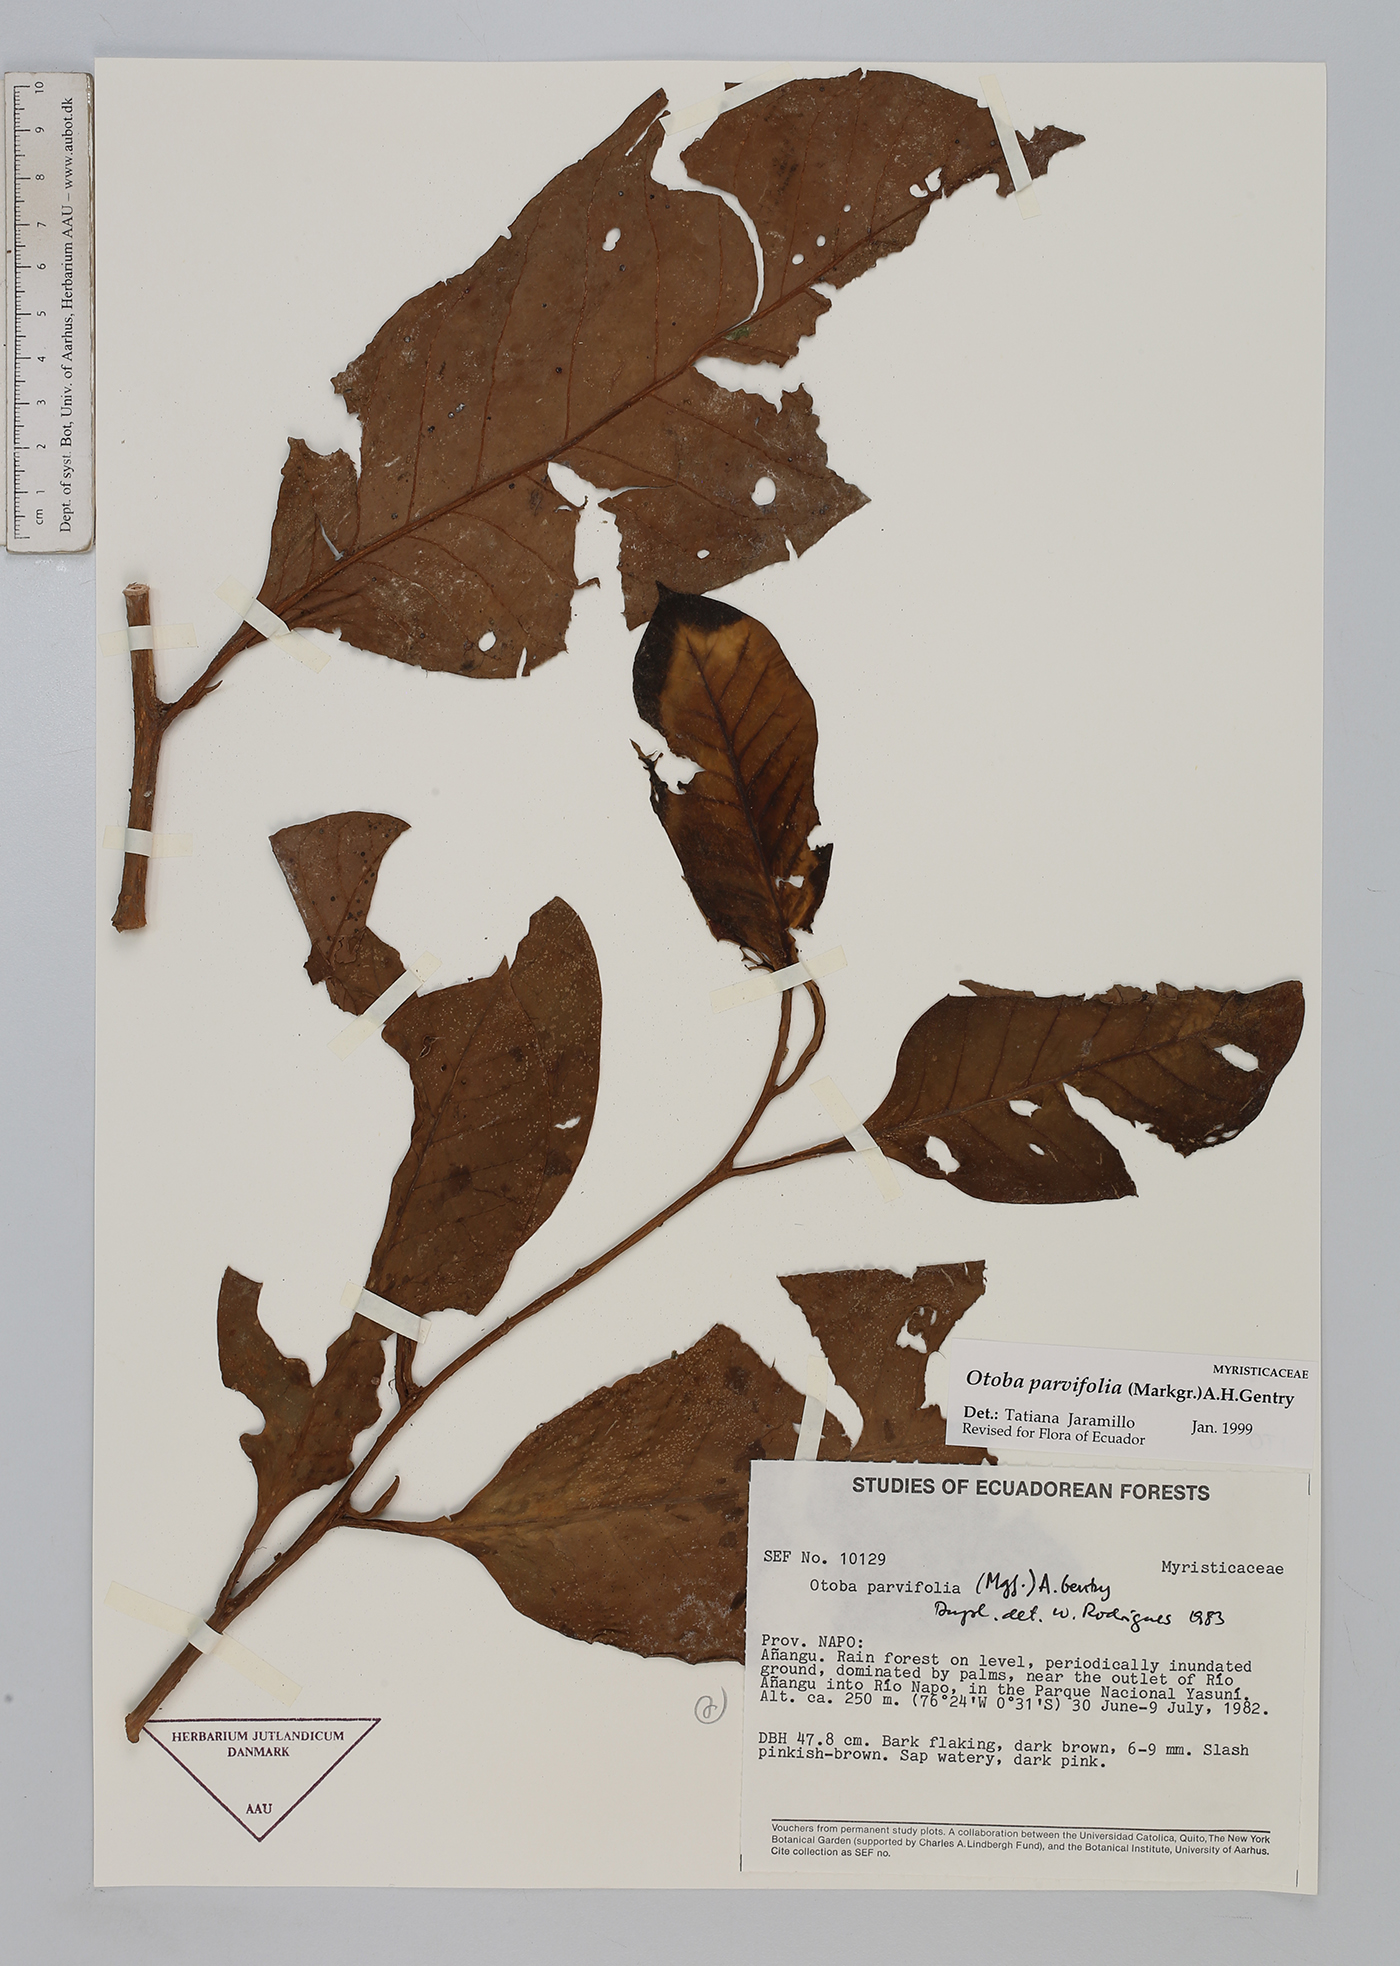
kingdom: Plantae
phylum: Tracheophyta
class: Magnoliopsida
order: Magnoliales
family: Myristicaceae
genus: Otoba
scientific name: Otoba parvifolia
